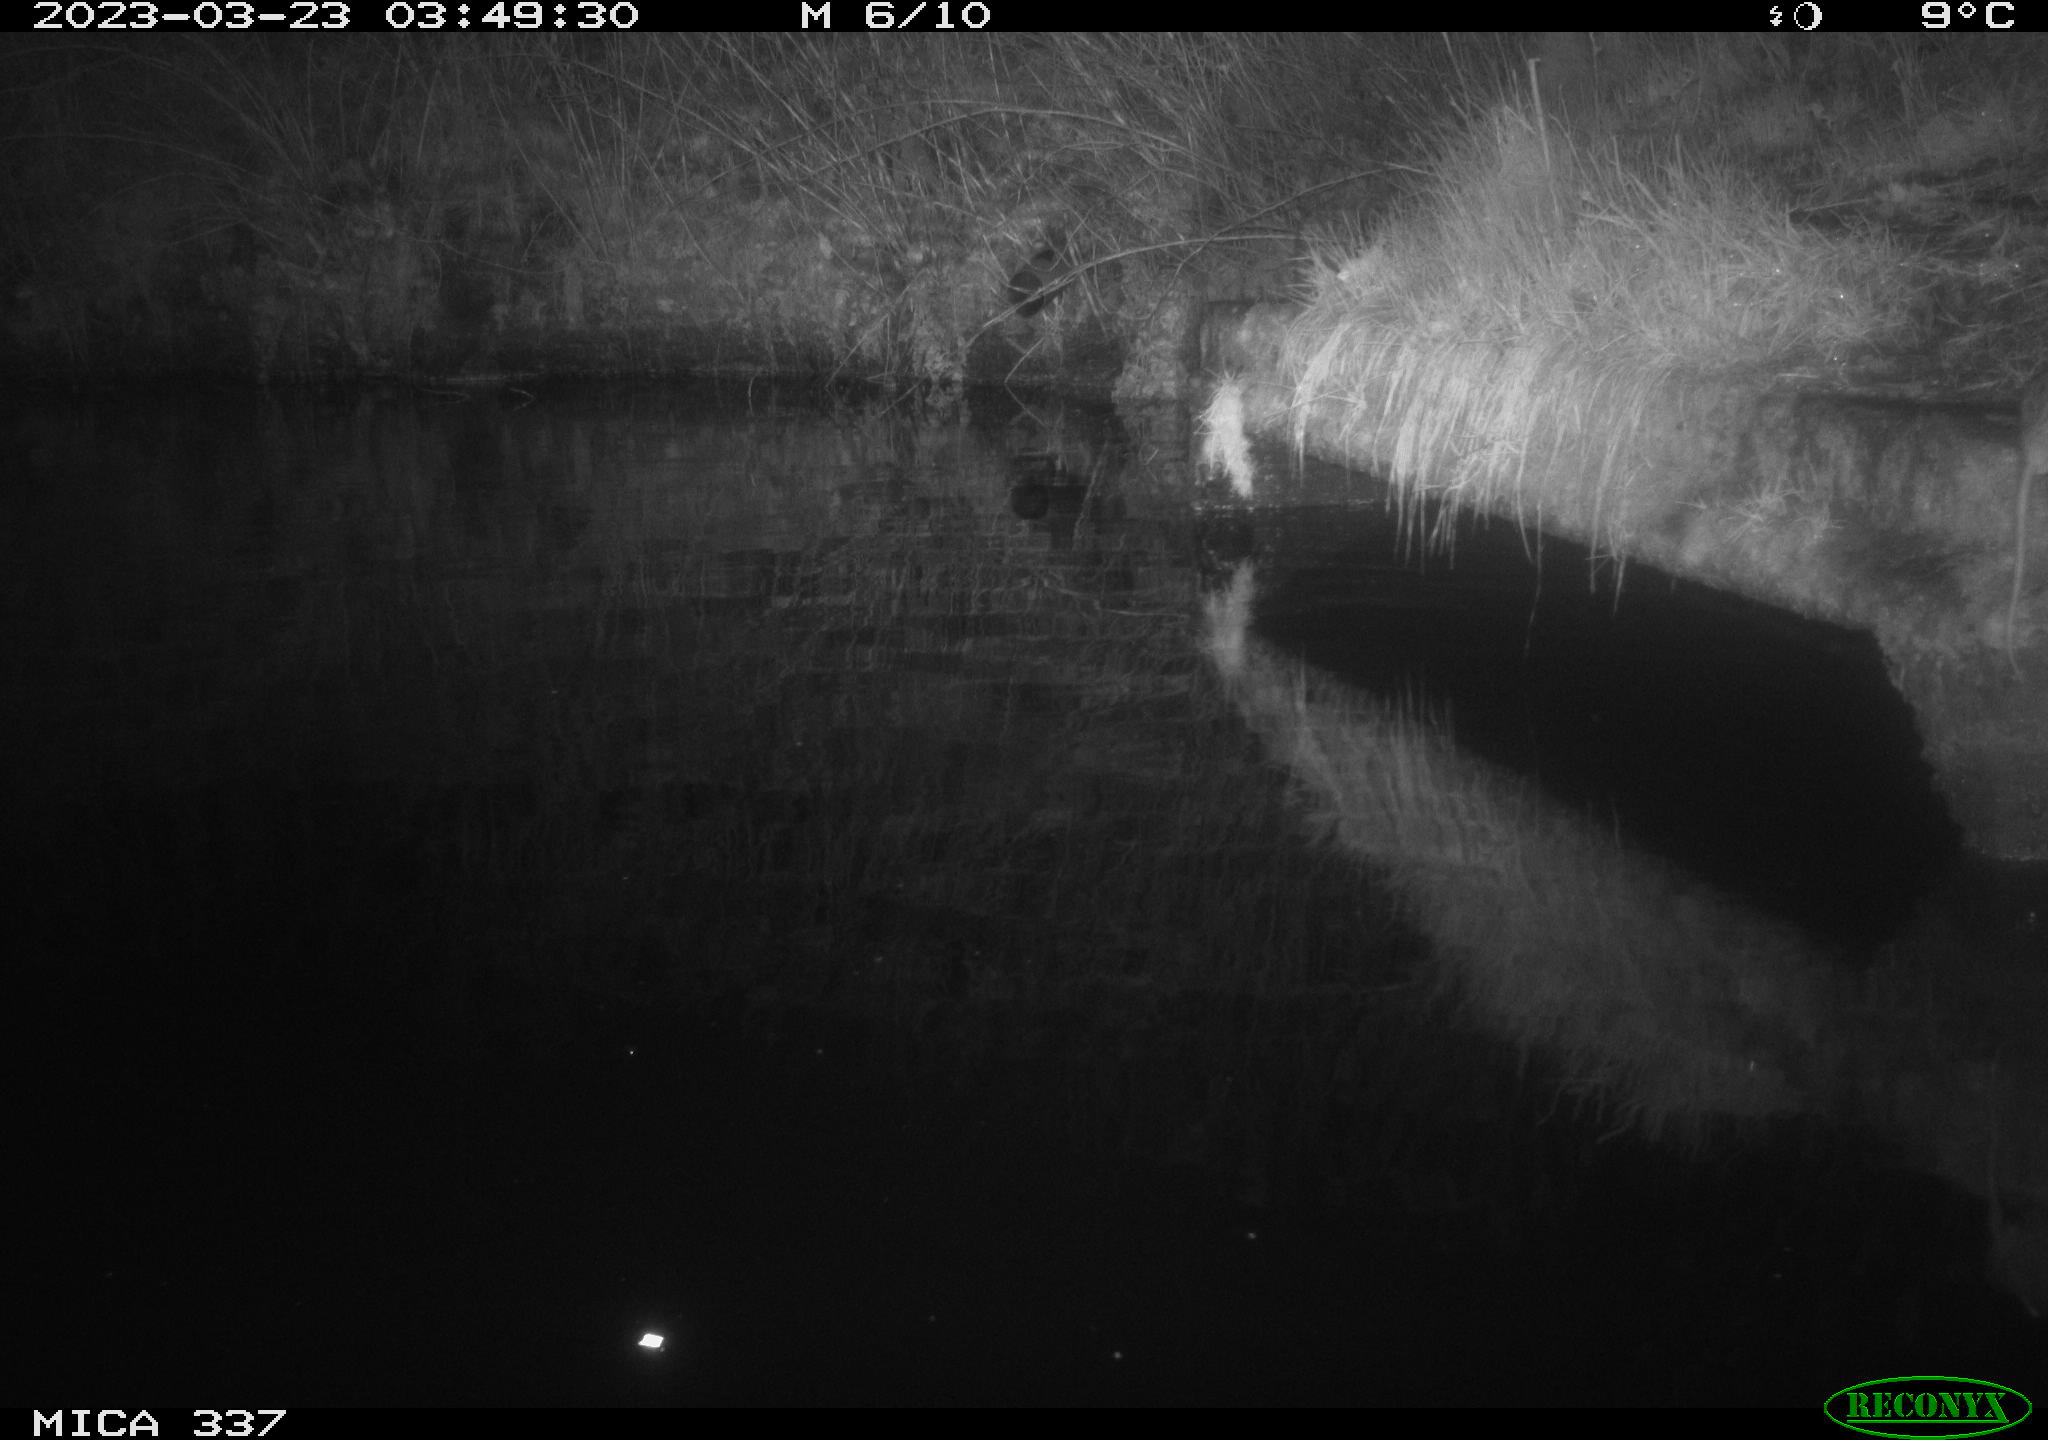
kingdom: Animalia
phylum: Chordata
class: Mammalia
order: Rodentia
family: Muridae
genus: Rattus
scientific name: Rattus norvegicus
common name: Brown rat
